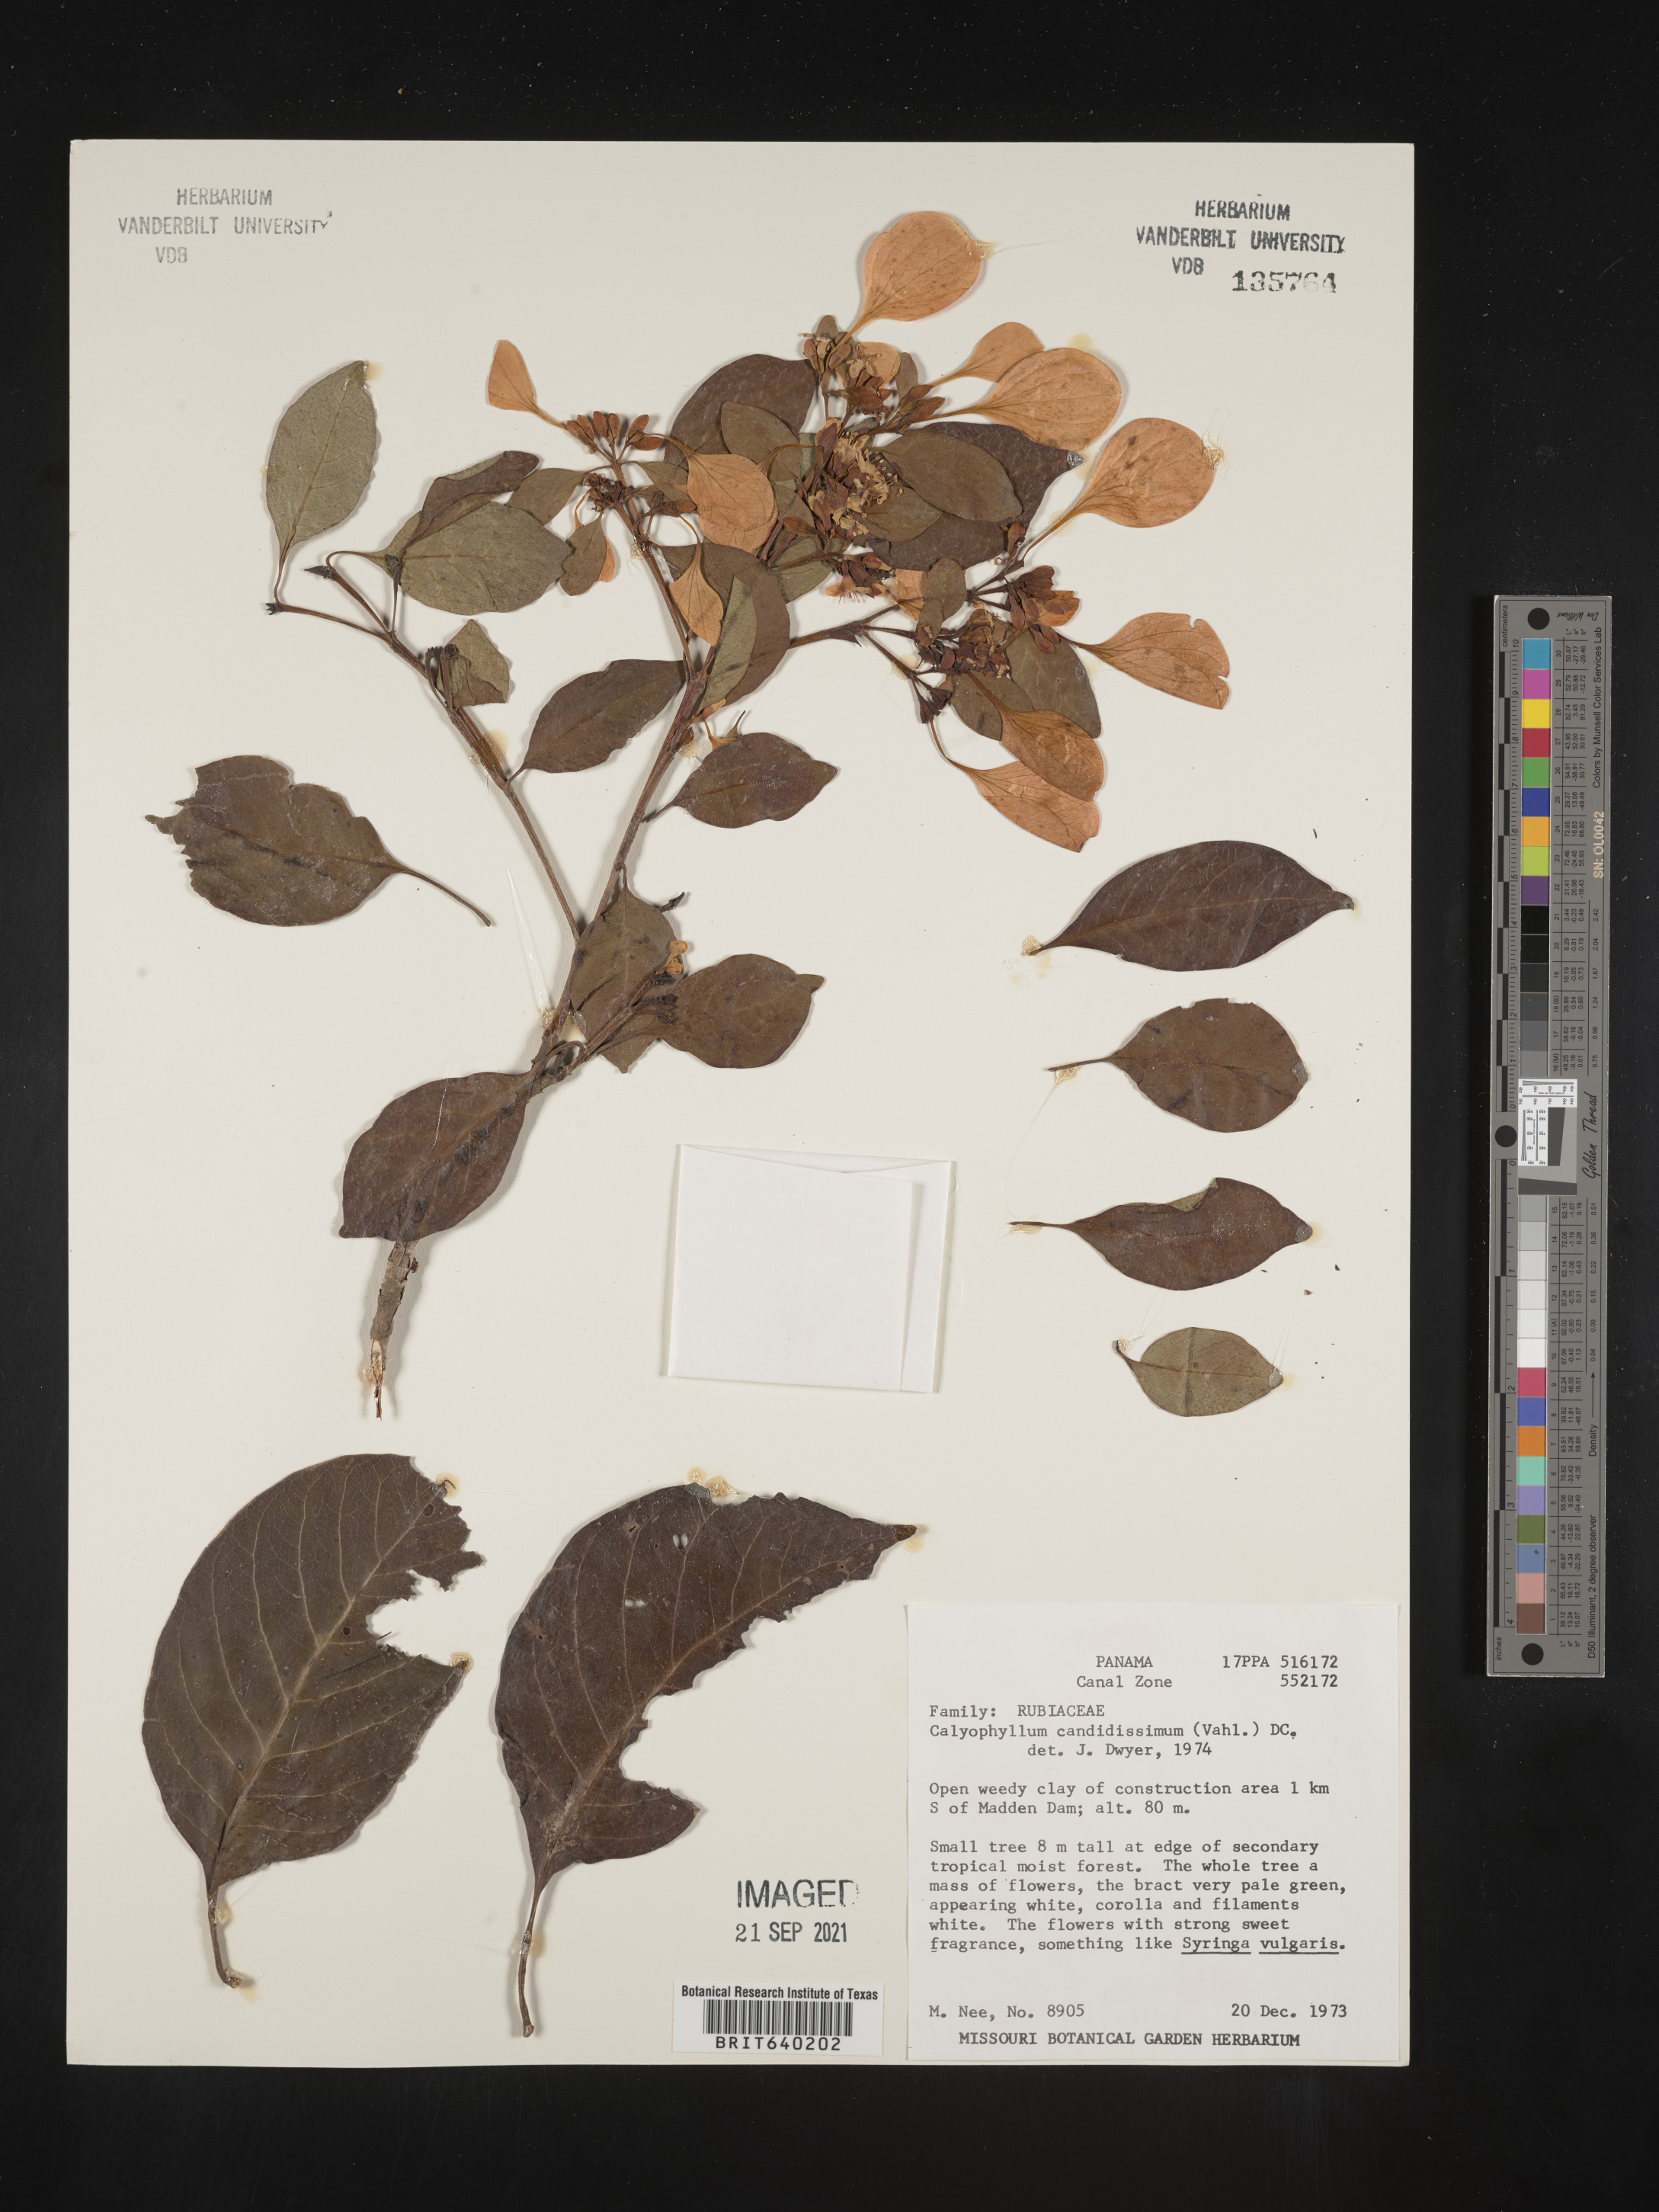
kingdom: Plantae
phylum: Tracheophyta
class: Magnoliopsida
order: Gentianales
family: Rubiaceae
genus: Calycophyllum
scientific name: Calycophyllum
